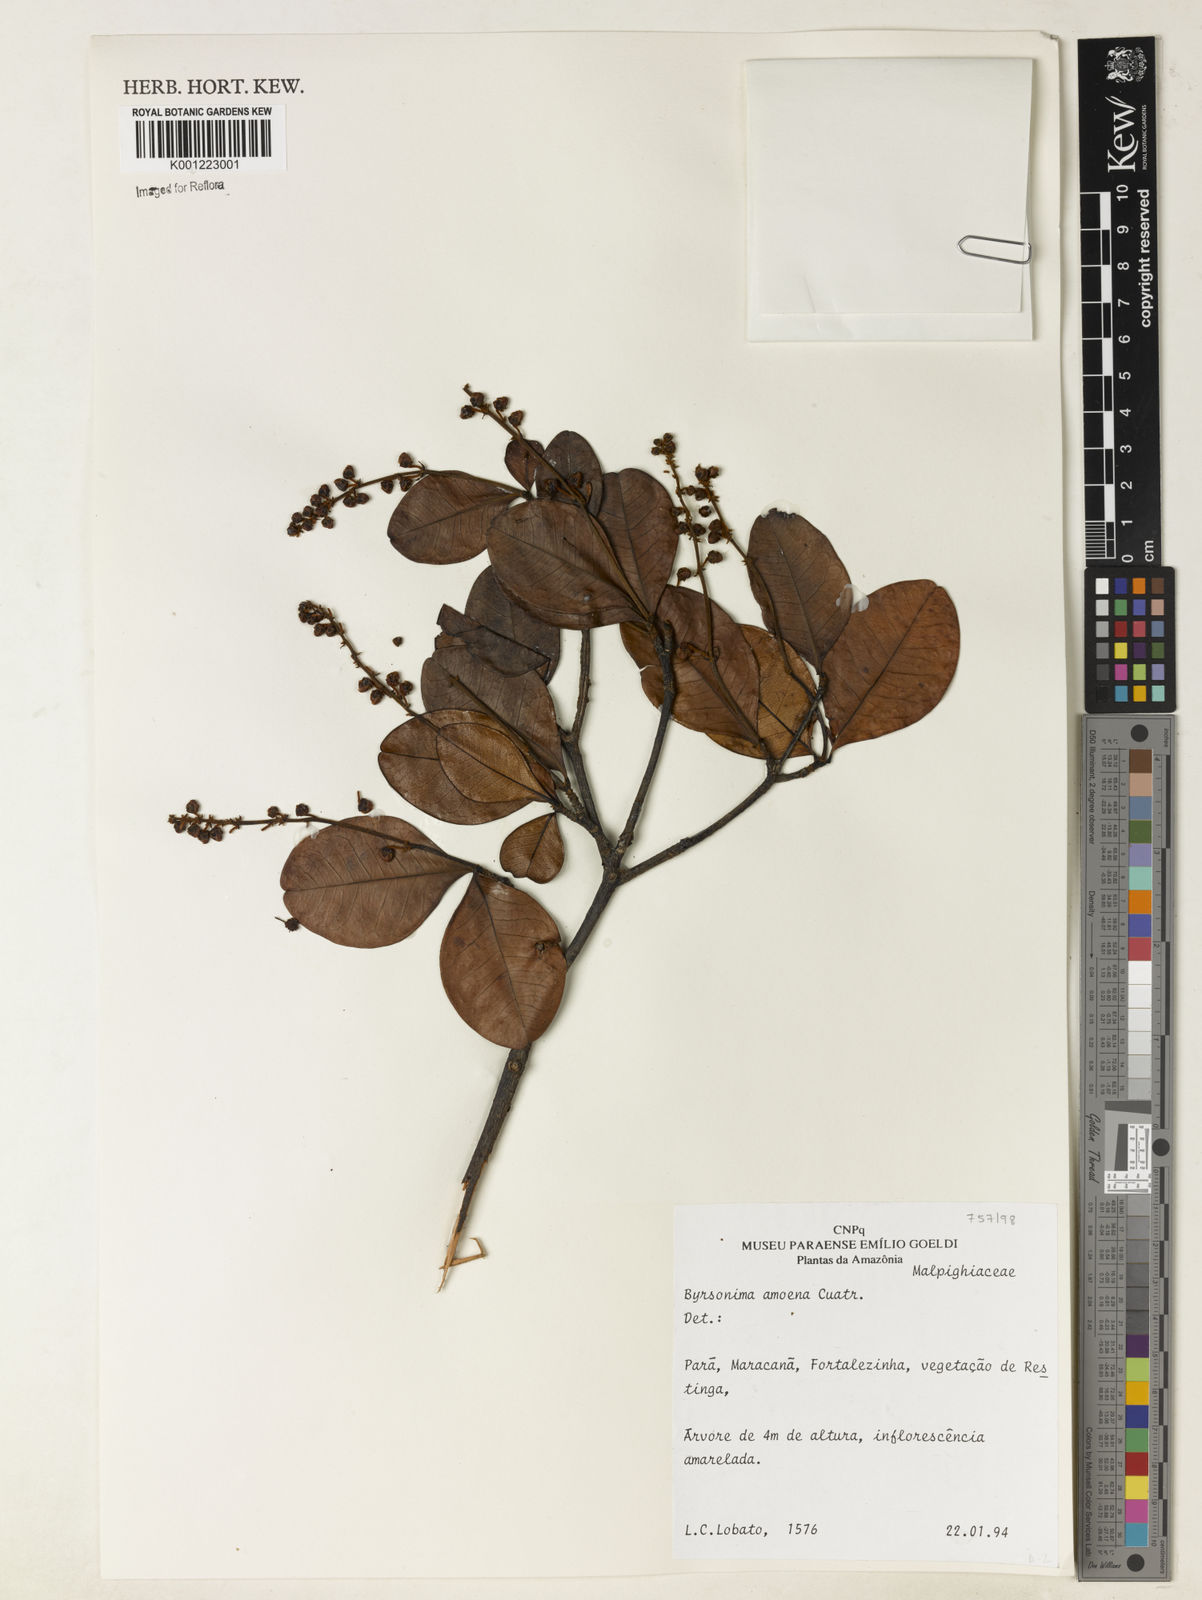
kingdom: Plantae
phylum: Tracheophyta
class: Magnoliopsida
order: Malpighiales
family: Malpighiaceae
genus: Byrsonima
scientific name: Byrsonima amoena
